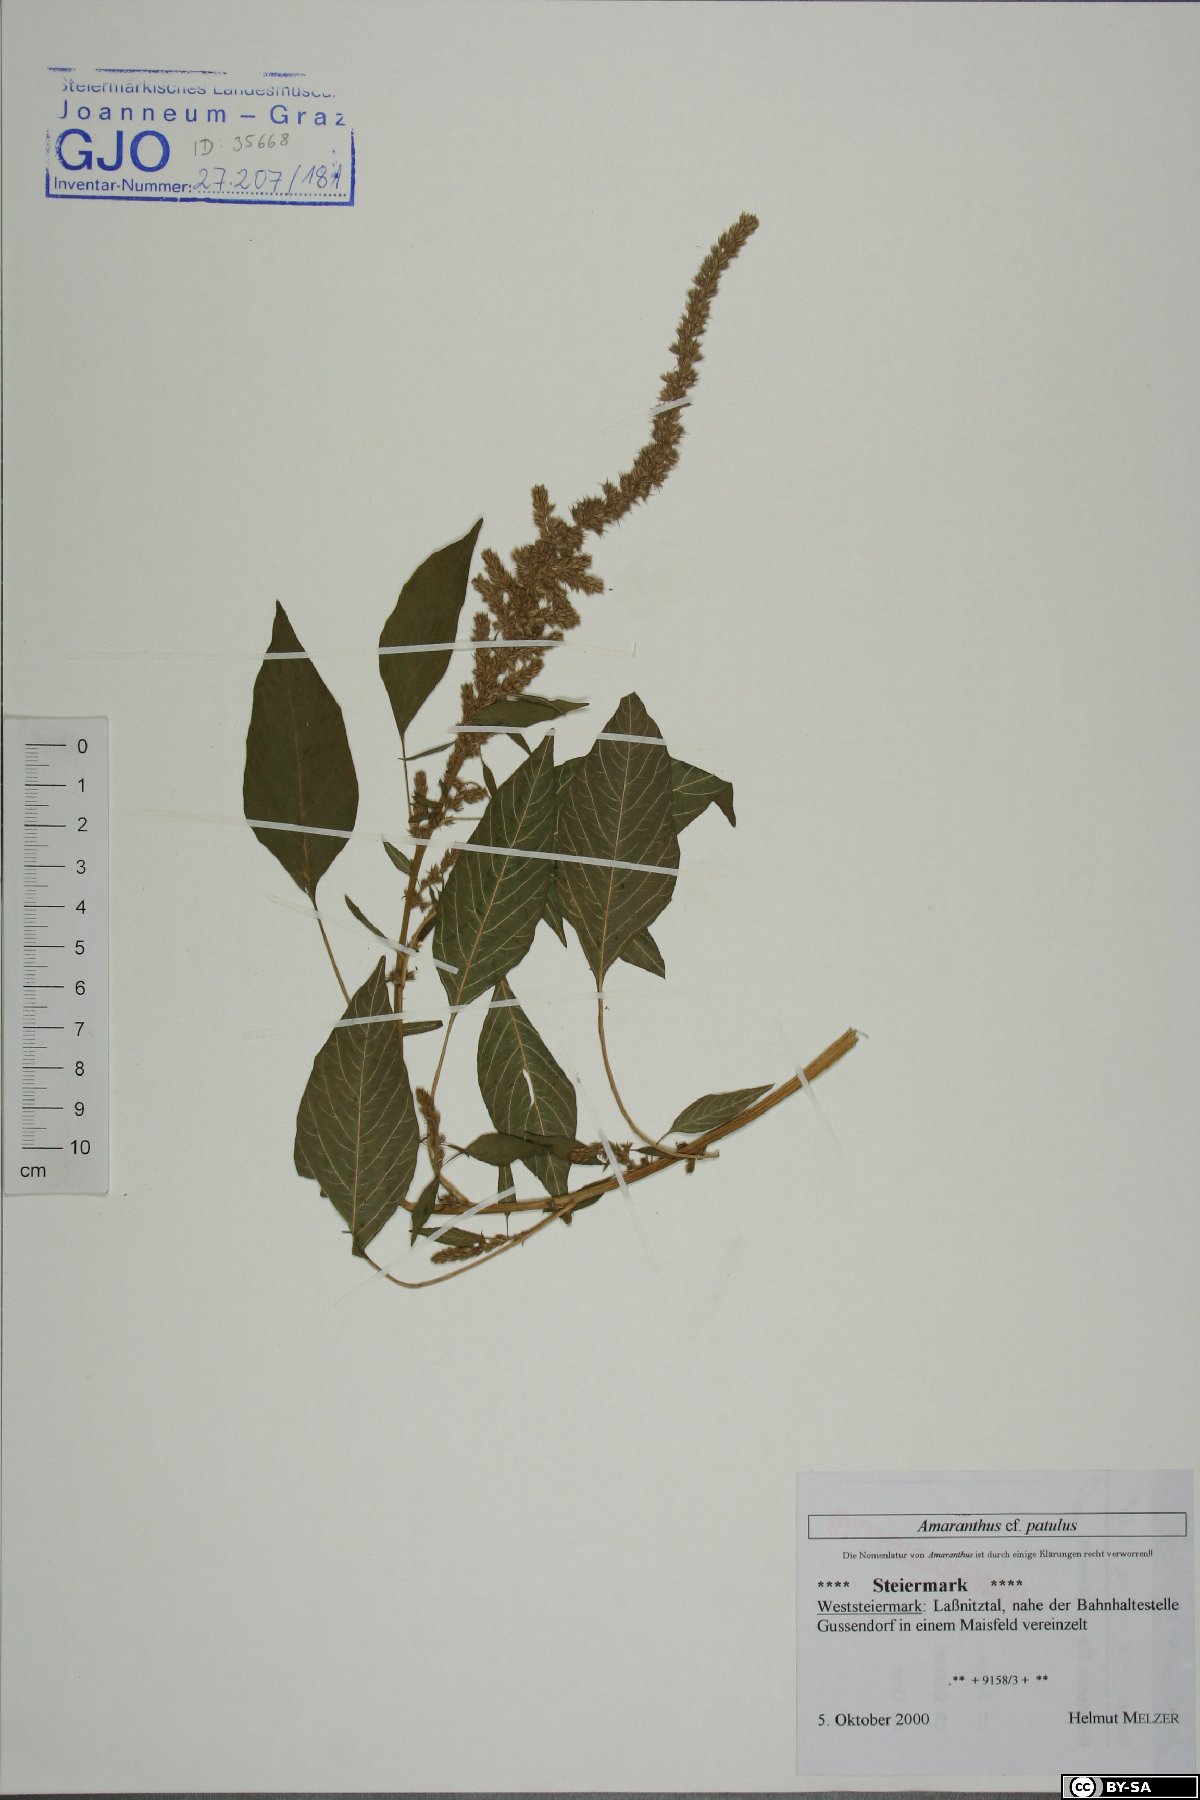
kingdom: Plantae
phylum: Tracheophyta
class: Magnoliopsida
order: Caryophyllales
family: Amaranthaceae
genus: Amaranthus
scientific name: Amaranthus hybridus
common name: Green amaranth
